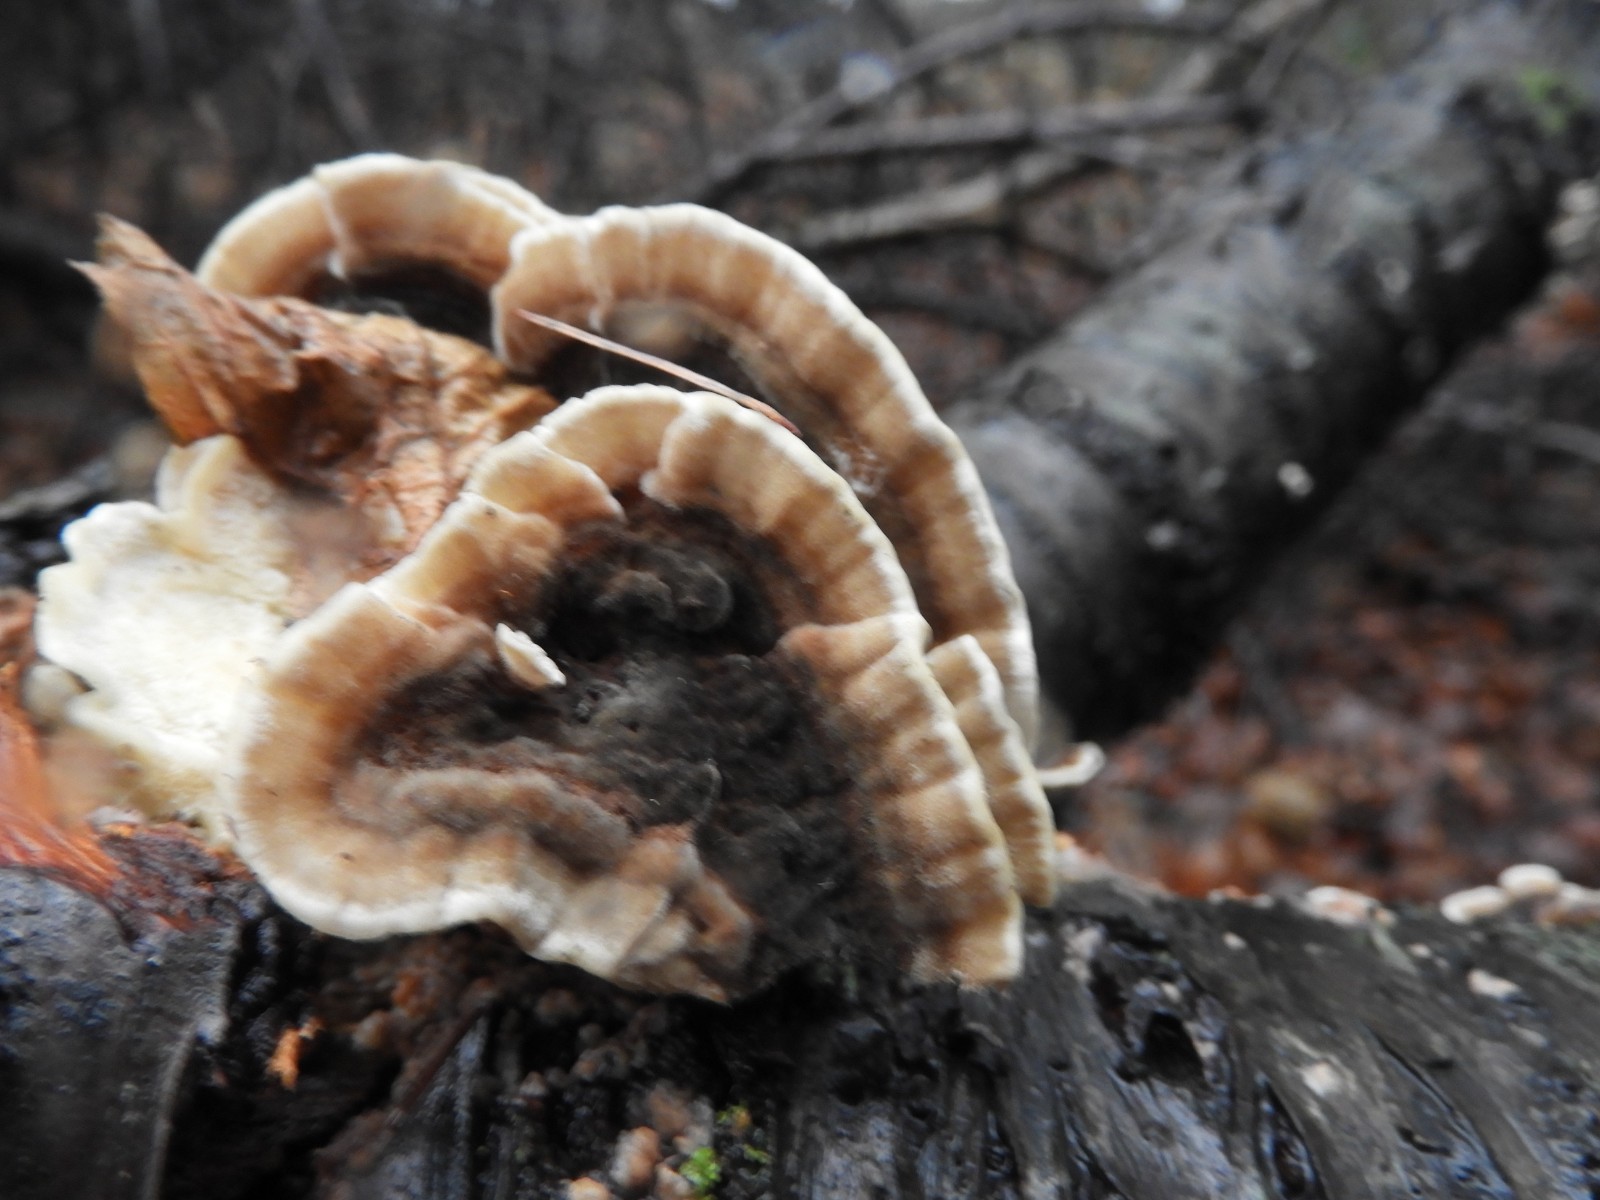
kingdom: Fungi
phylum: Basidiomycota
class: Agaricomycetes
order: Polyporales
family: Polyporaceae
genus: Trametes
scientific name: Trametes versicolor
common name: broget læderporesvamp
